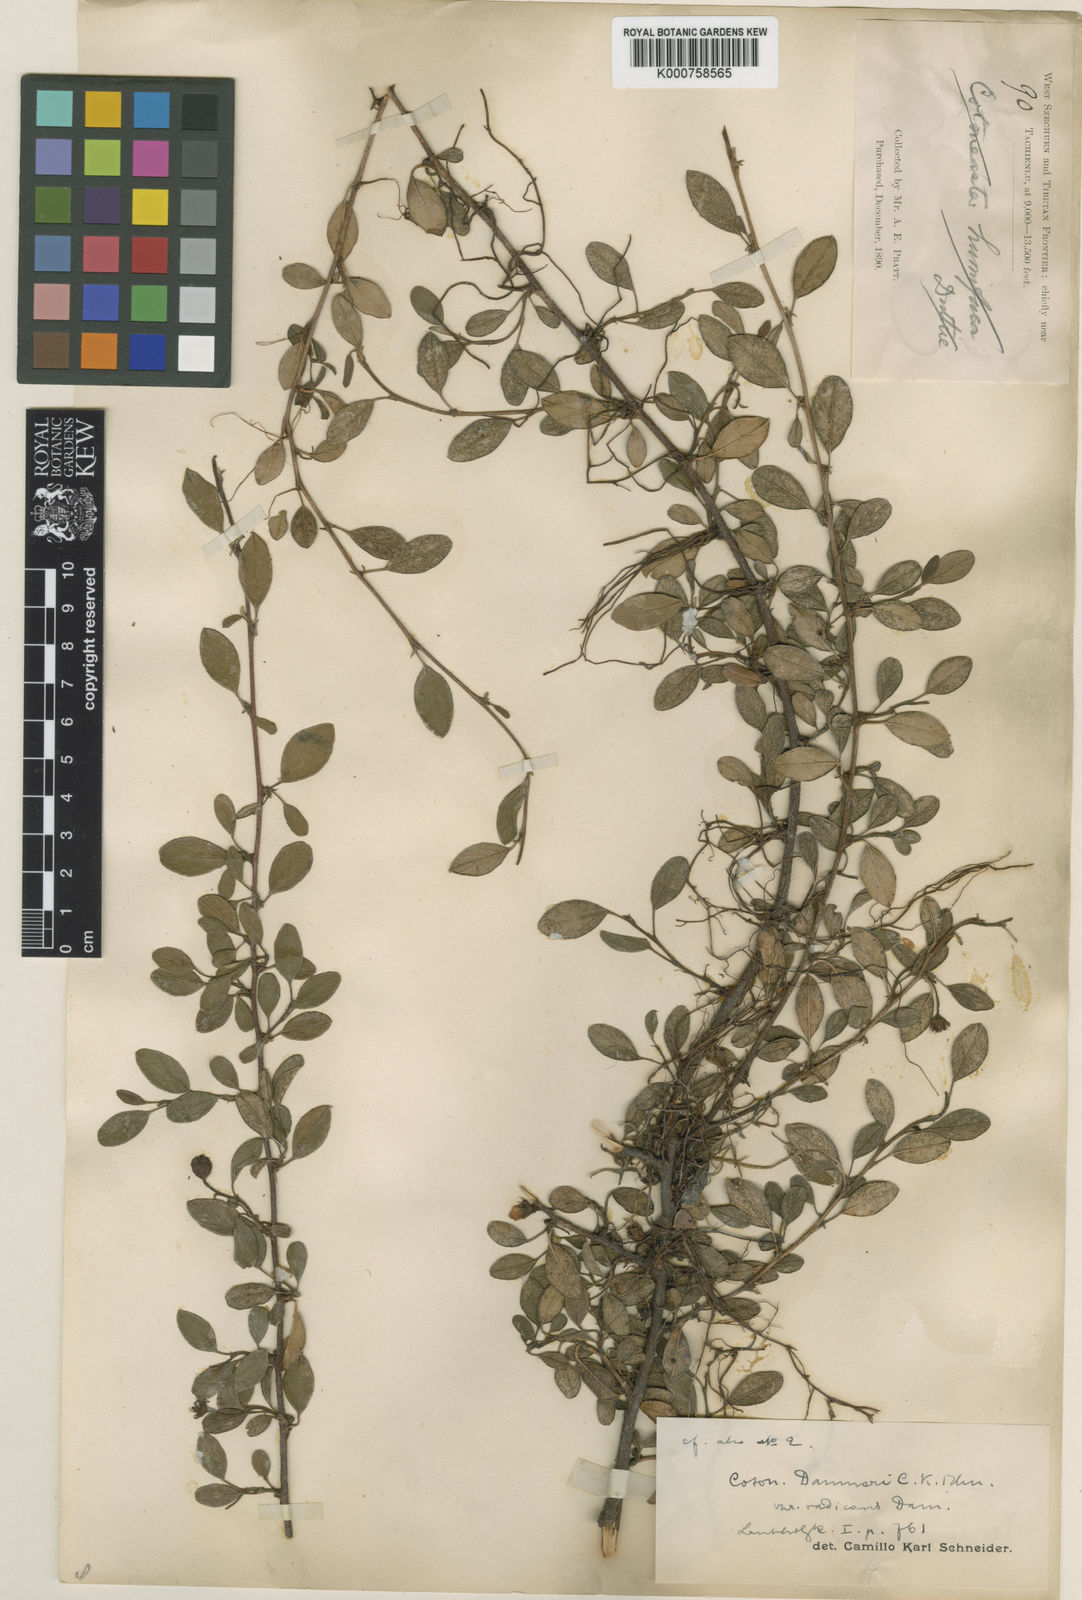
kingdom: Plantae
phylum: Tracheophyta
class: Magnoliopsida
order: Rosales
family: Rosaceae
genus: Cotoneaster
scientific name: Cotoneaster dammeri
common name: Bearberry cotoneaster
